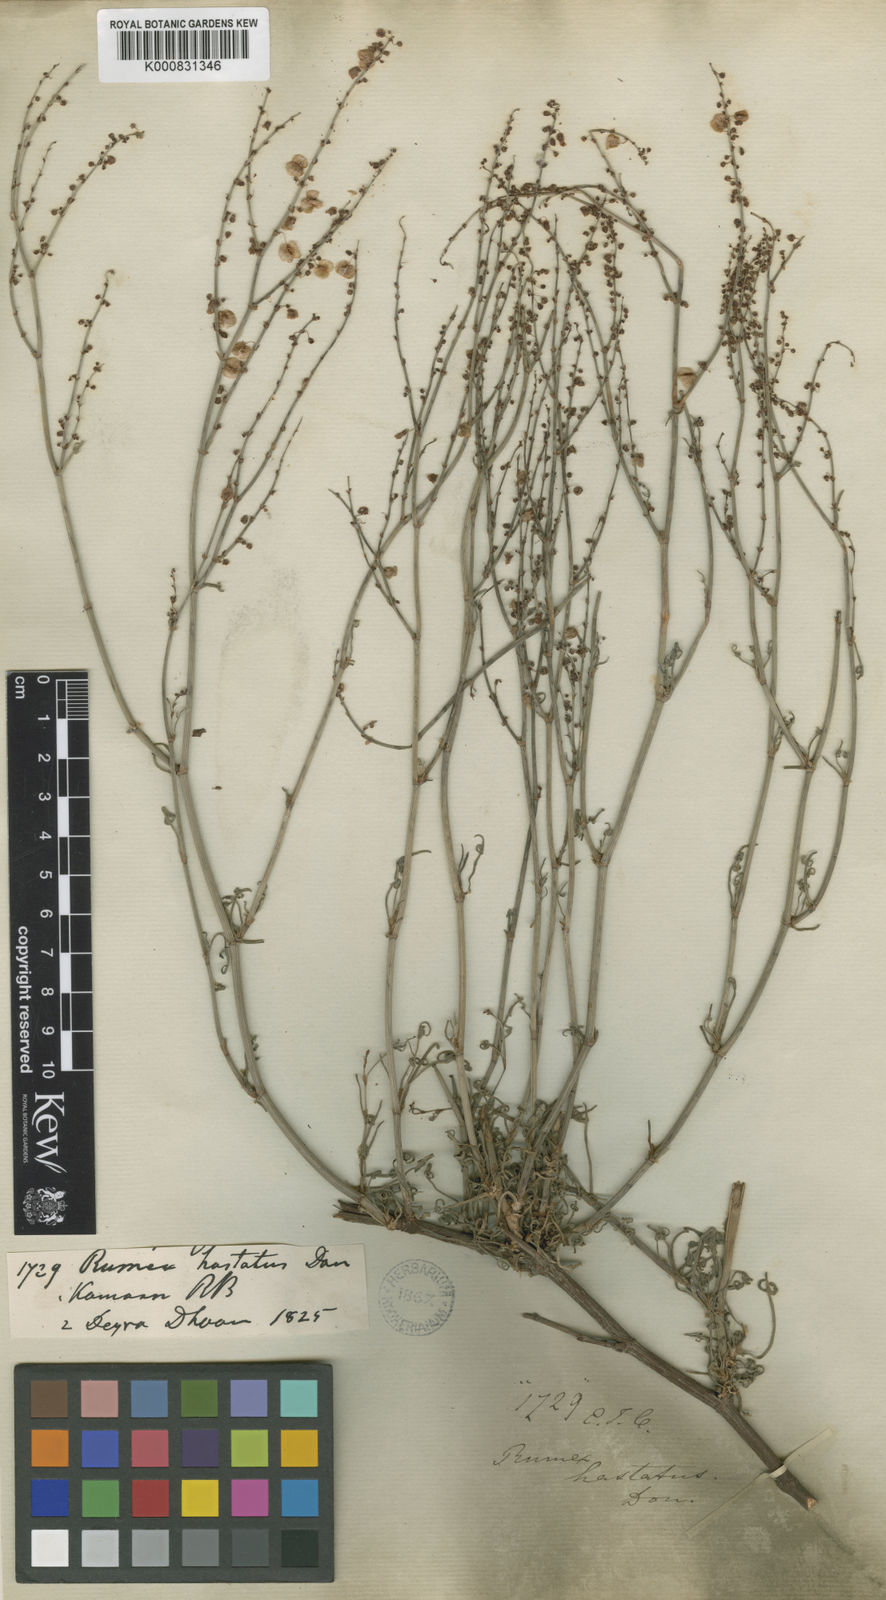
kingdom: Plantae
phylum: Tracheophyta
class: Magnoliopsida
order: Caryophyllales
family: Polygonaceae
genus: Rumex
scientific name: Rumex hastatus
